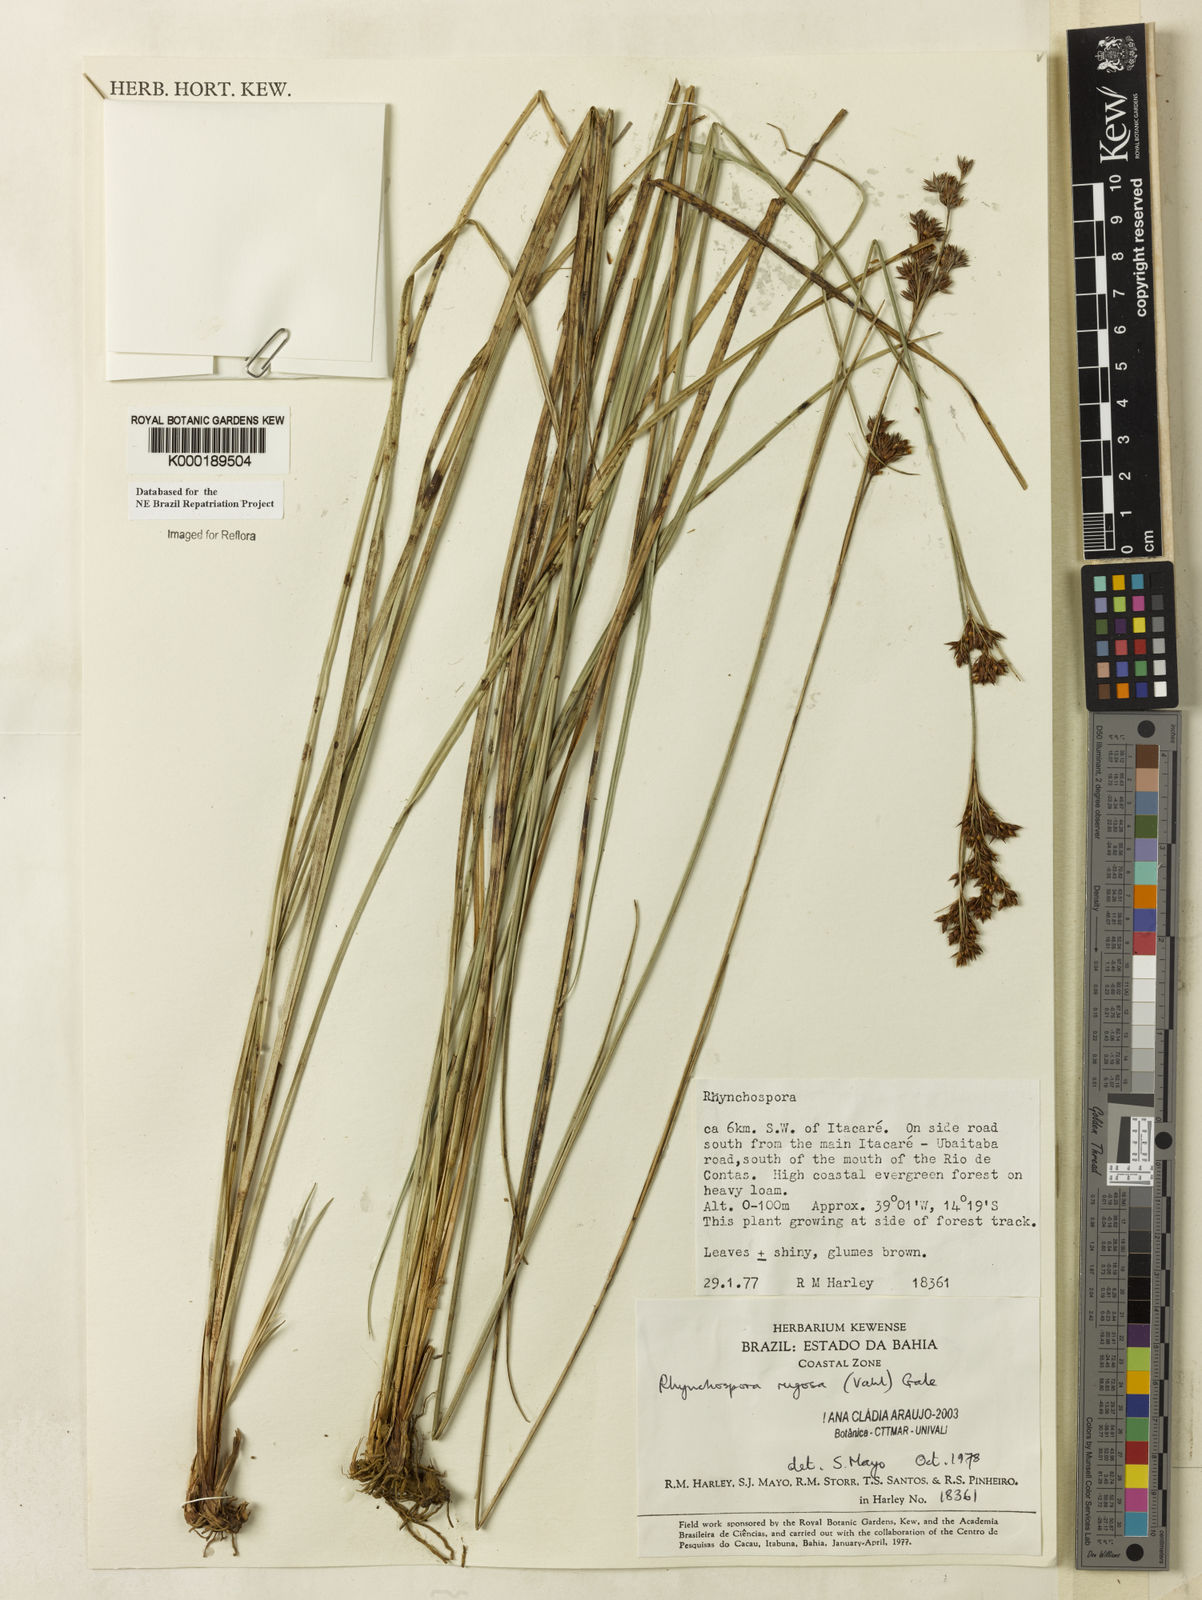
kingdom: Plantae
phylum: Tracheophyta
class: Liliopsida
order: Poales
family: Cyperaceae
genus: Rhynchospora
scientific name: Rhynchospora rugosa
